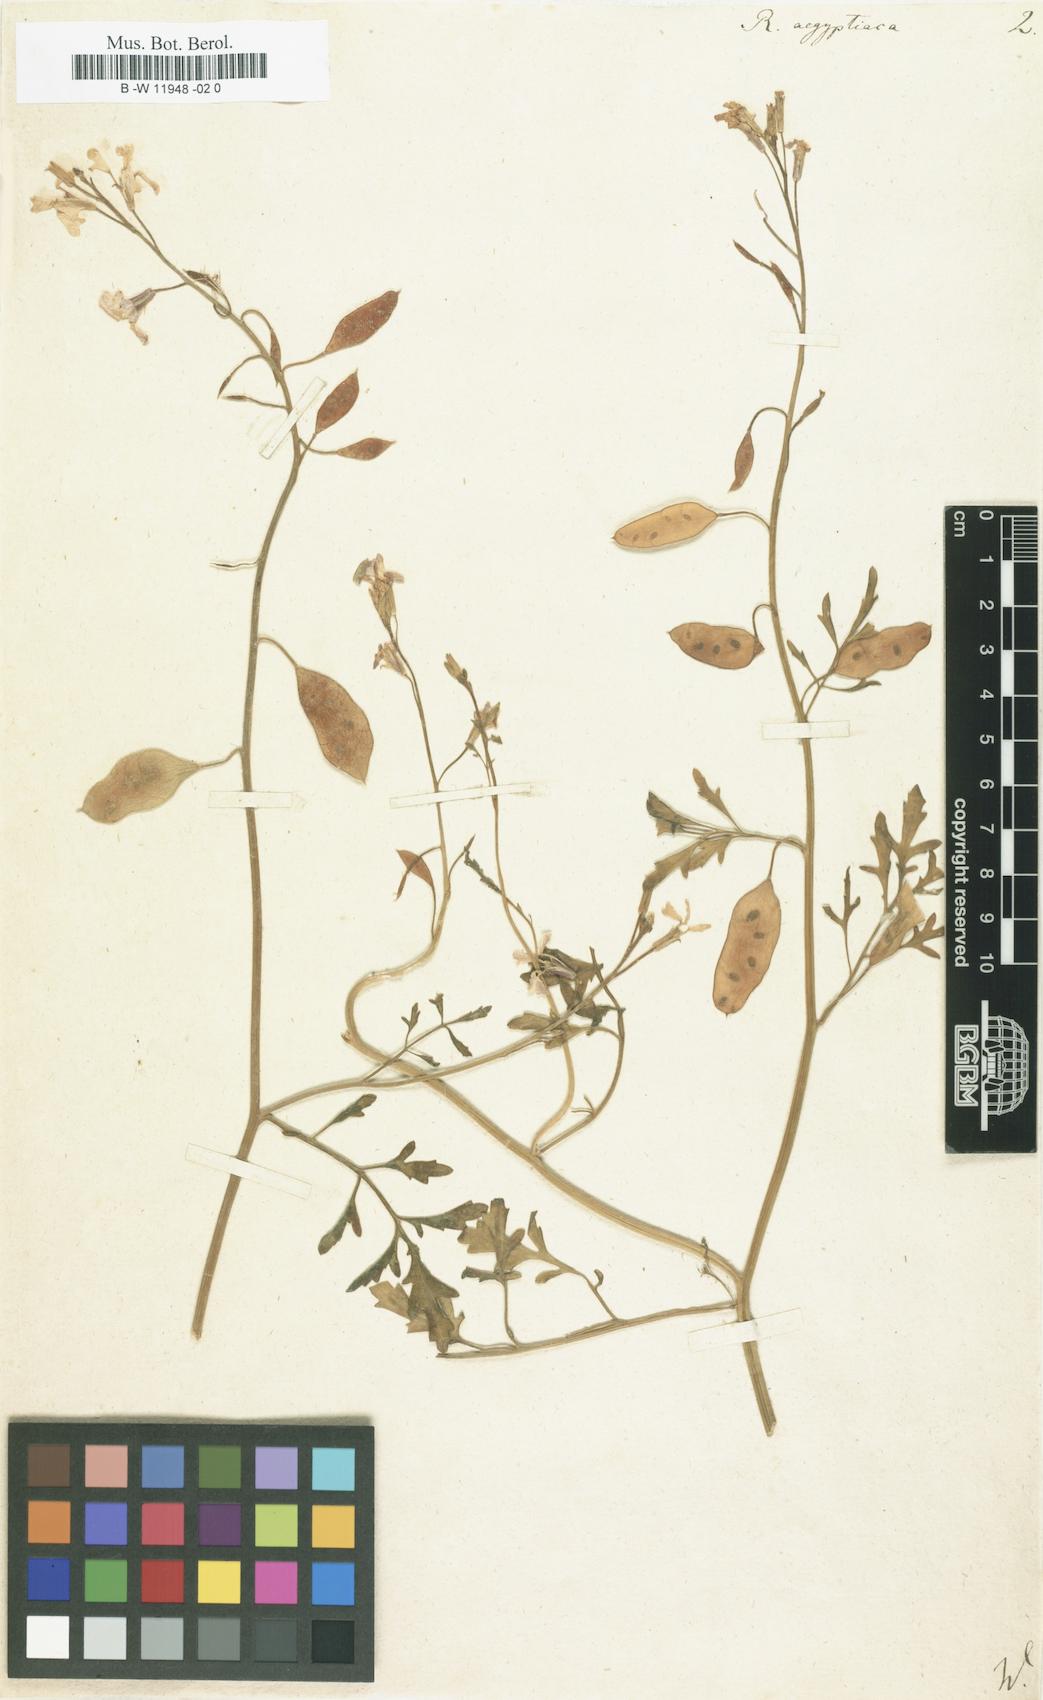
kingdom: Plantae
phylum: Tracheophyta
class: Magnoliopsida
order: Brassicales
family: Brassicaceae
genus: Ricotia
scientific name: Ricotia lunaria
